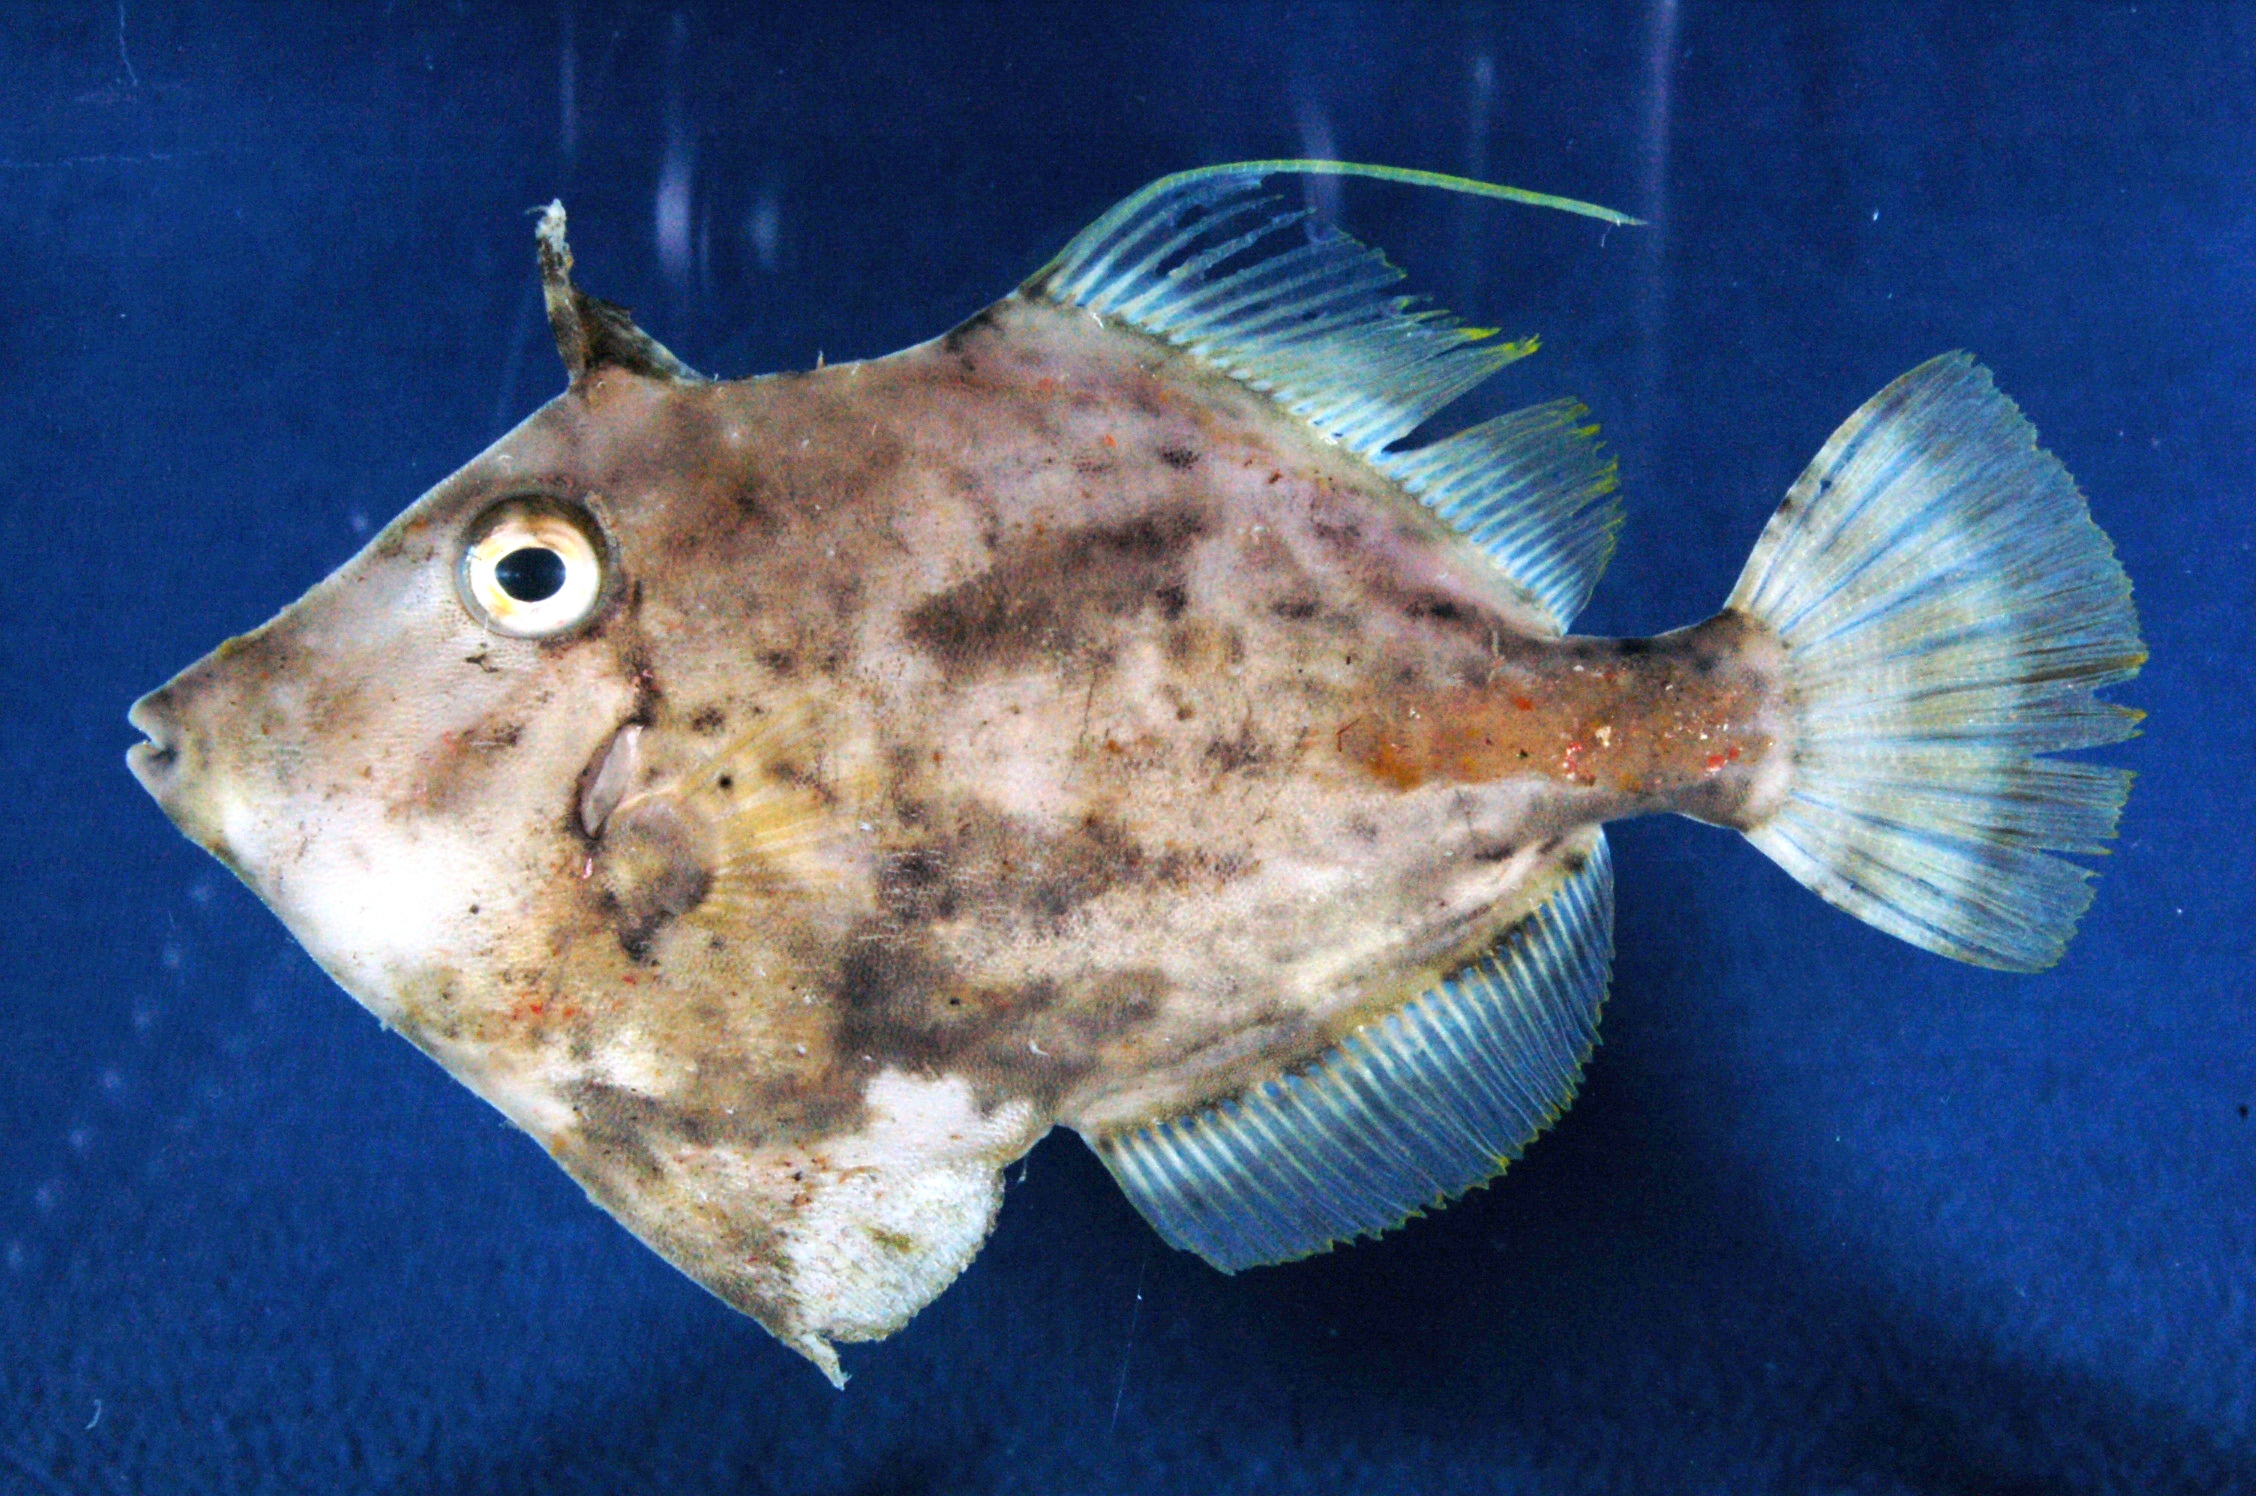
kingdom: Animalia
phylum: Chordata
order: Tetraodontiformes
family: Monacanthidae
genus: Stephanolepis
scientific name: Stephanolepis auratus
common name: Porky
